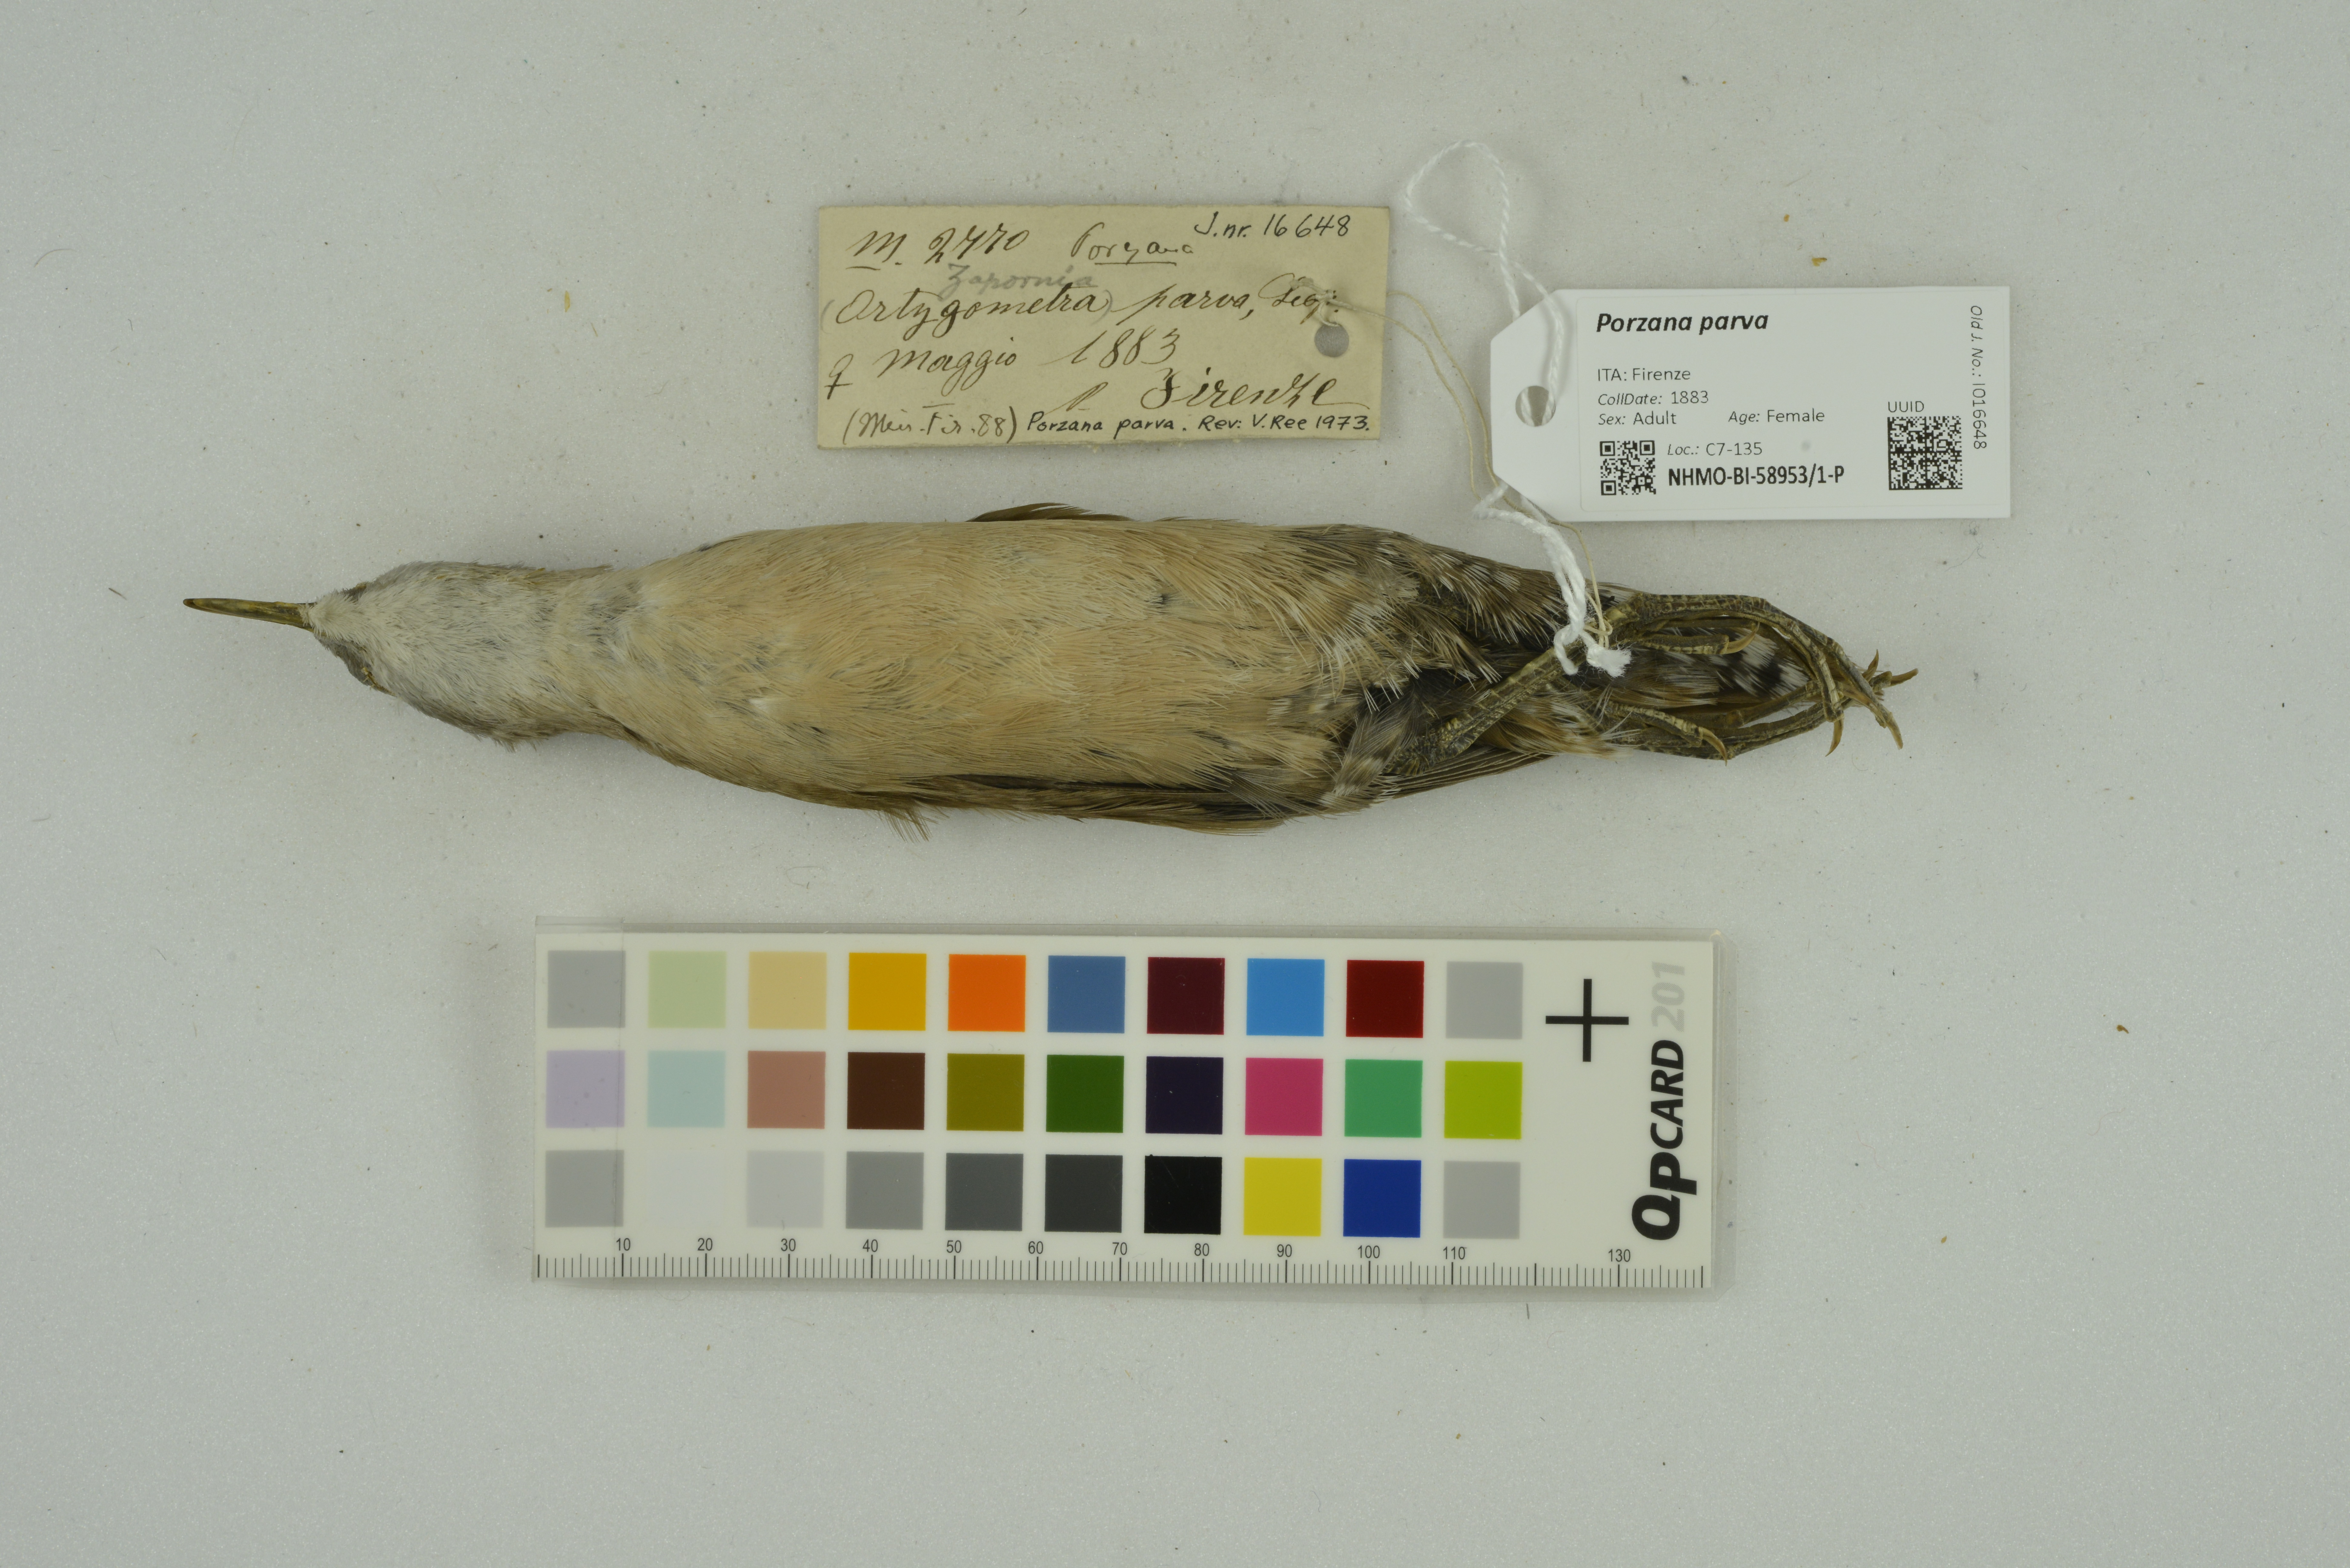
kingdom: Animalia
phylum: Chordata
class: Aves
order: Gruiformes
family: Rallidae
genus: Porzana
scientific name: Porzana parva
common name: Little crake
